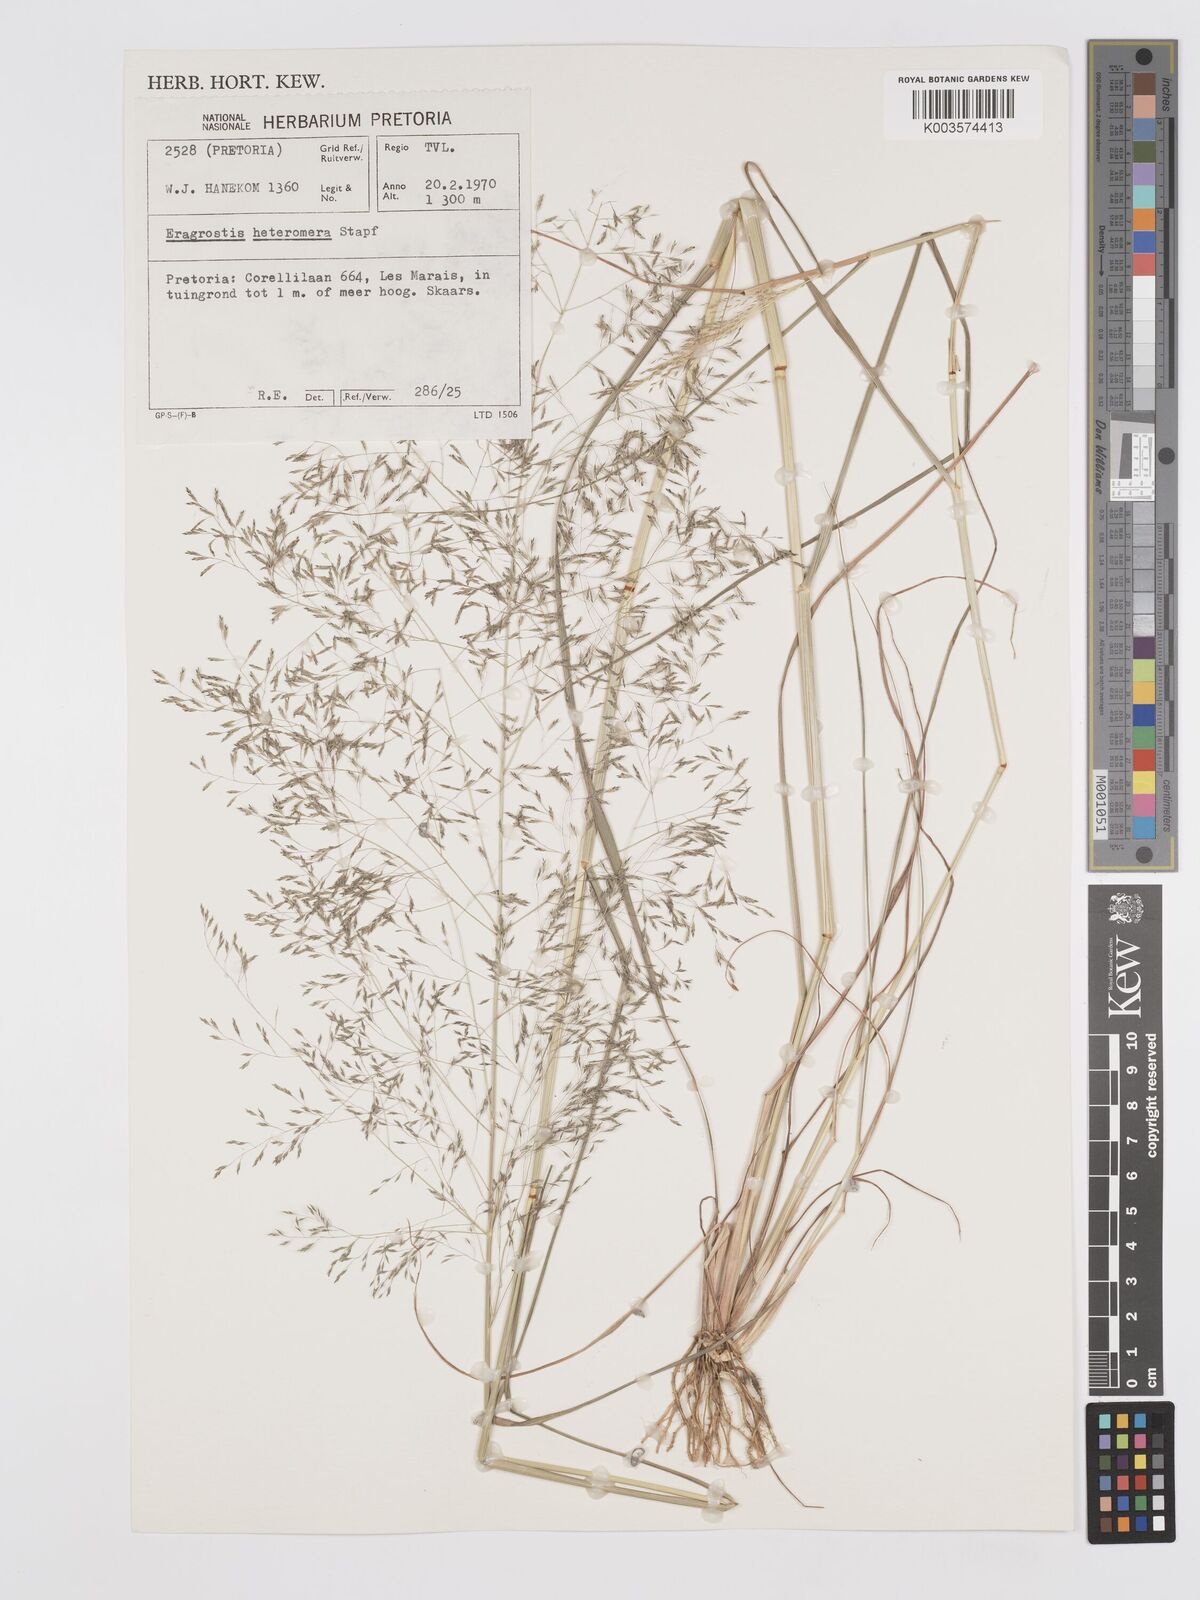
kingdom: Plantae
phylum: Tracheophyta
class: Liliopsida
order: Poales
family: Poaceae
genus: Eragrostis
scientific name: Eragrostis heteromera
